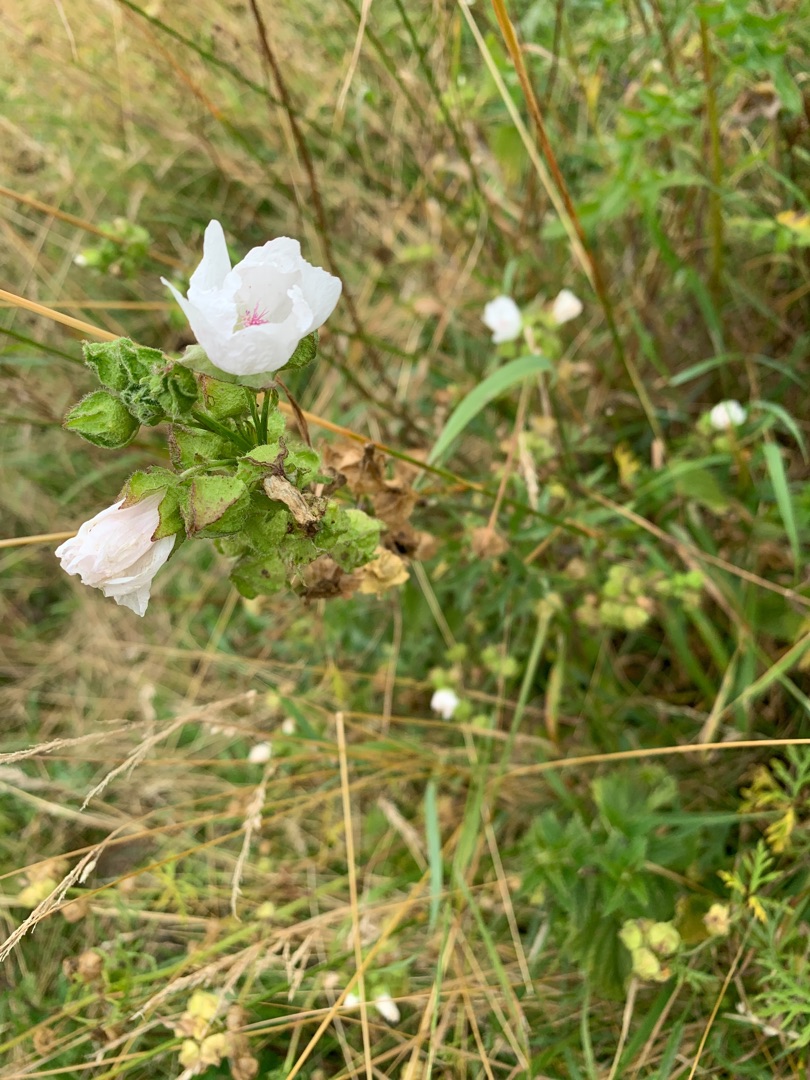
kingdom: Plantae
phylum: Tracheophyta
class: Magnoliopsida
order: Malvales
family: Malvaceae
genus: Malva
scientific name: Malva moschata
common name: Moskus-katost
